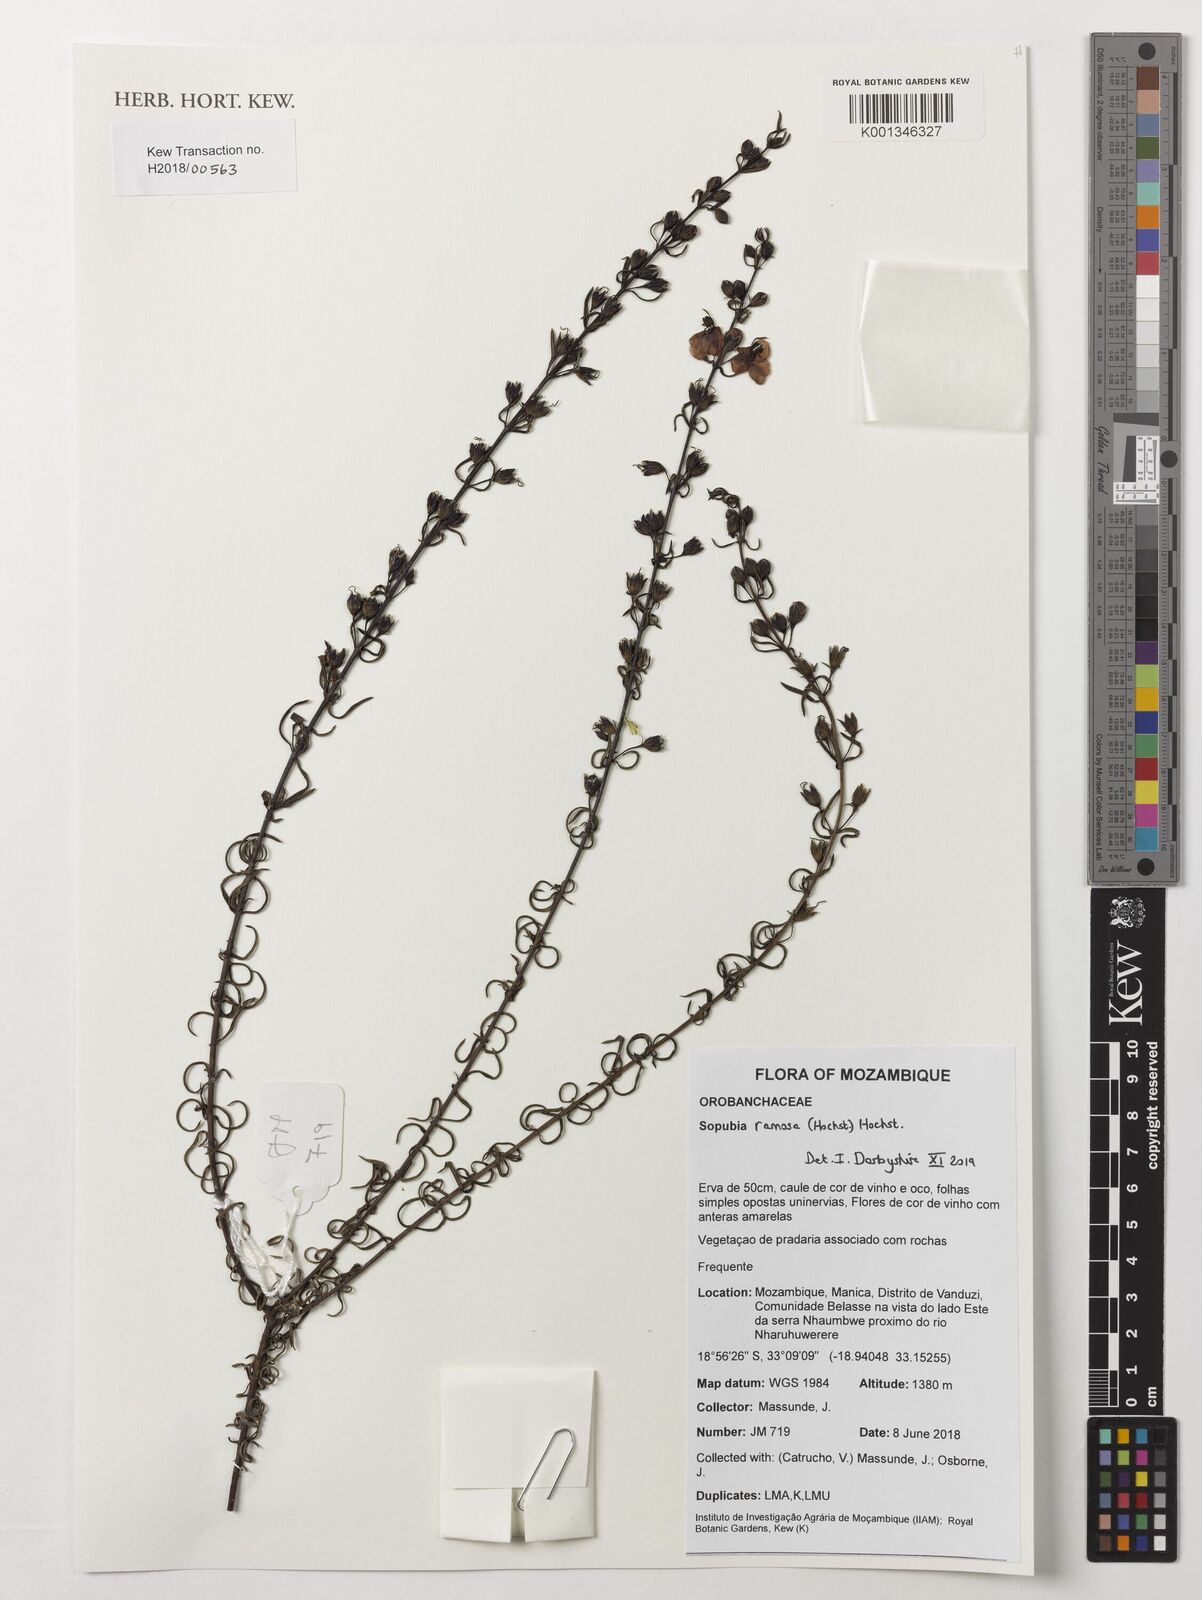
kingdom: Plantae
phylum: Tracheophyta
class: Magnoliopsida
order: Lamiales
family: Orobanchaceae
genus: Sopubia
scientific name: Sopubia ramosa
